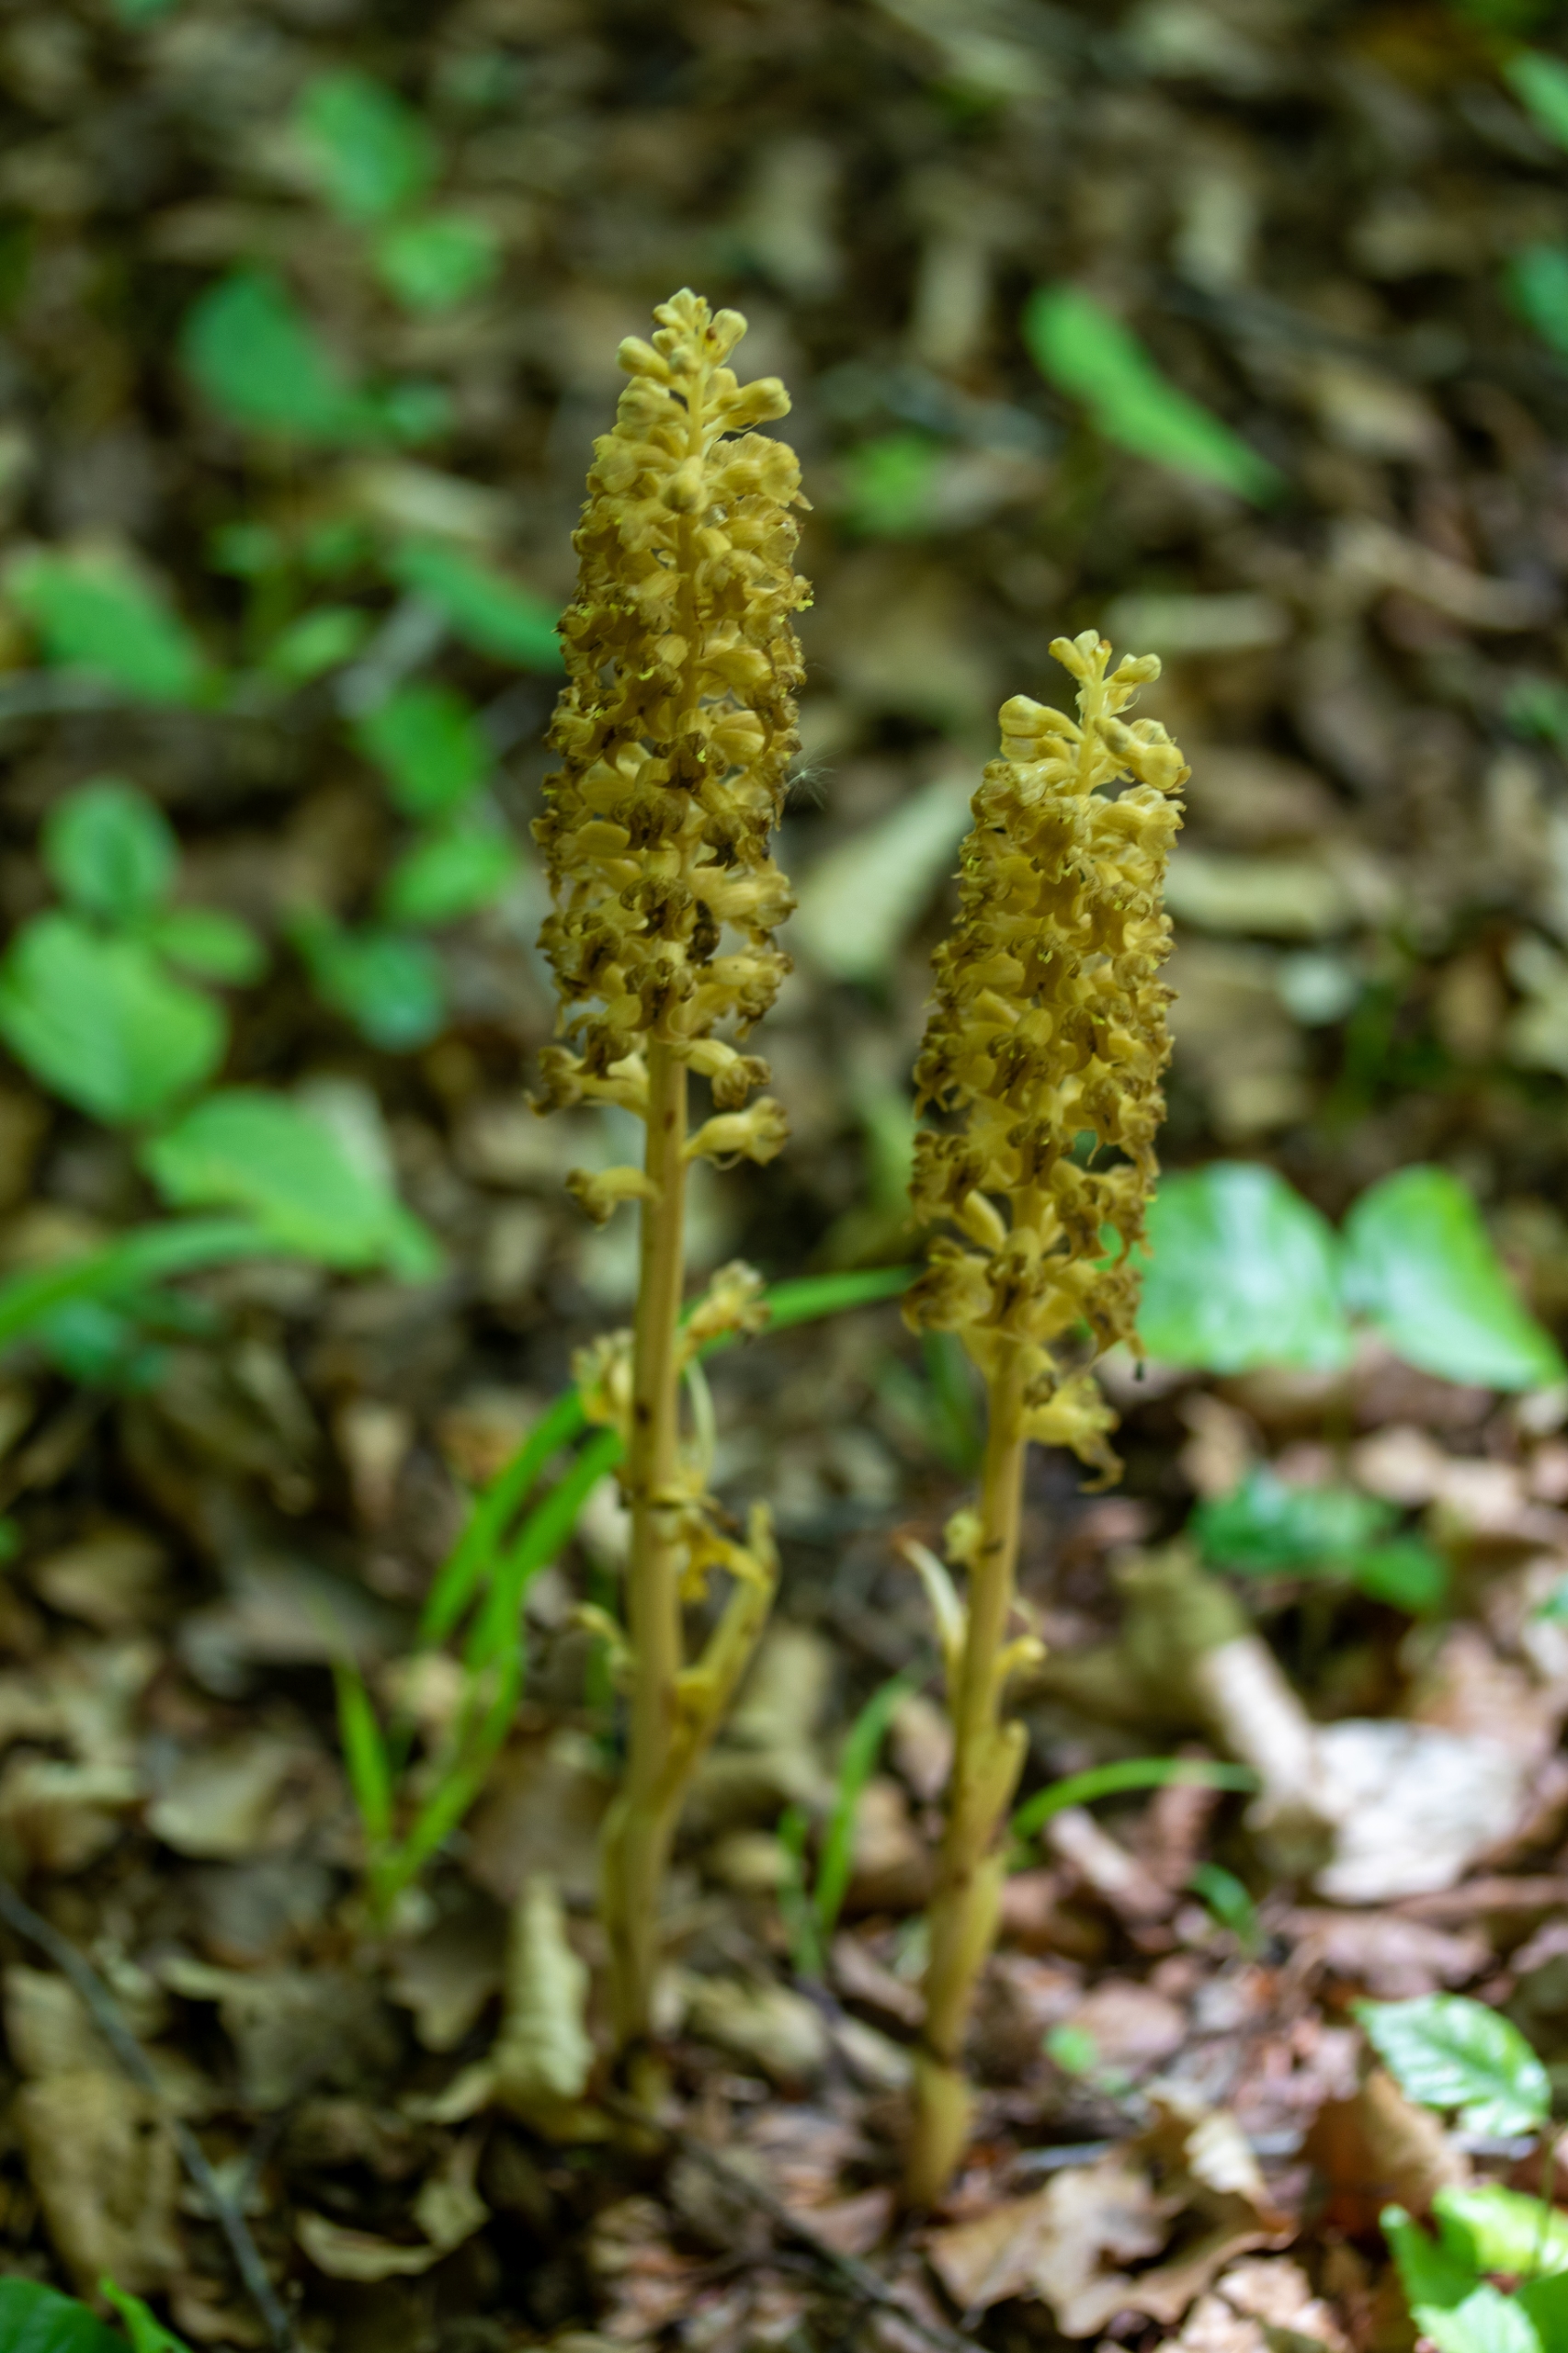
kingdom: Plantae
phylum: Tracheophyta
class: Liliopsida
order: Asparagales
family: Orchidaceae
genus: Neottia
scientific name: Neottia nidus-avis
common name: Rederod
